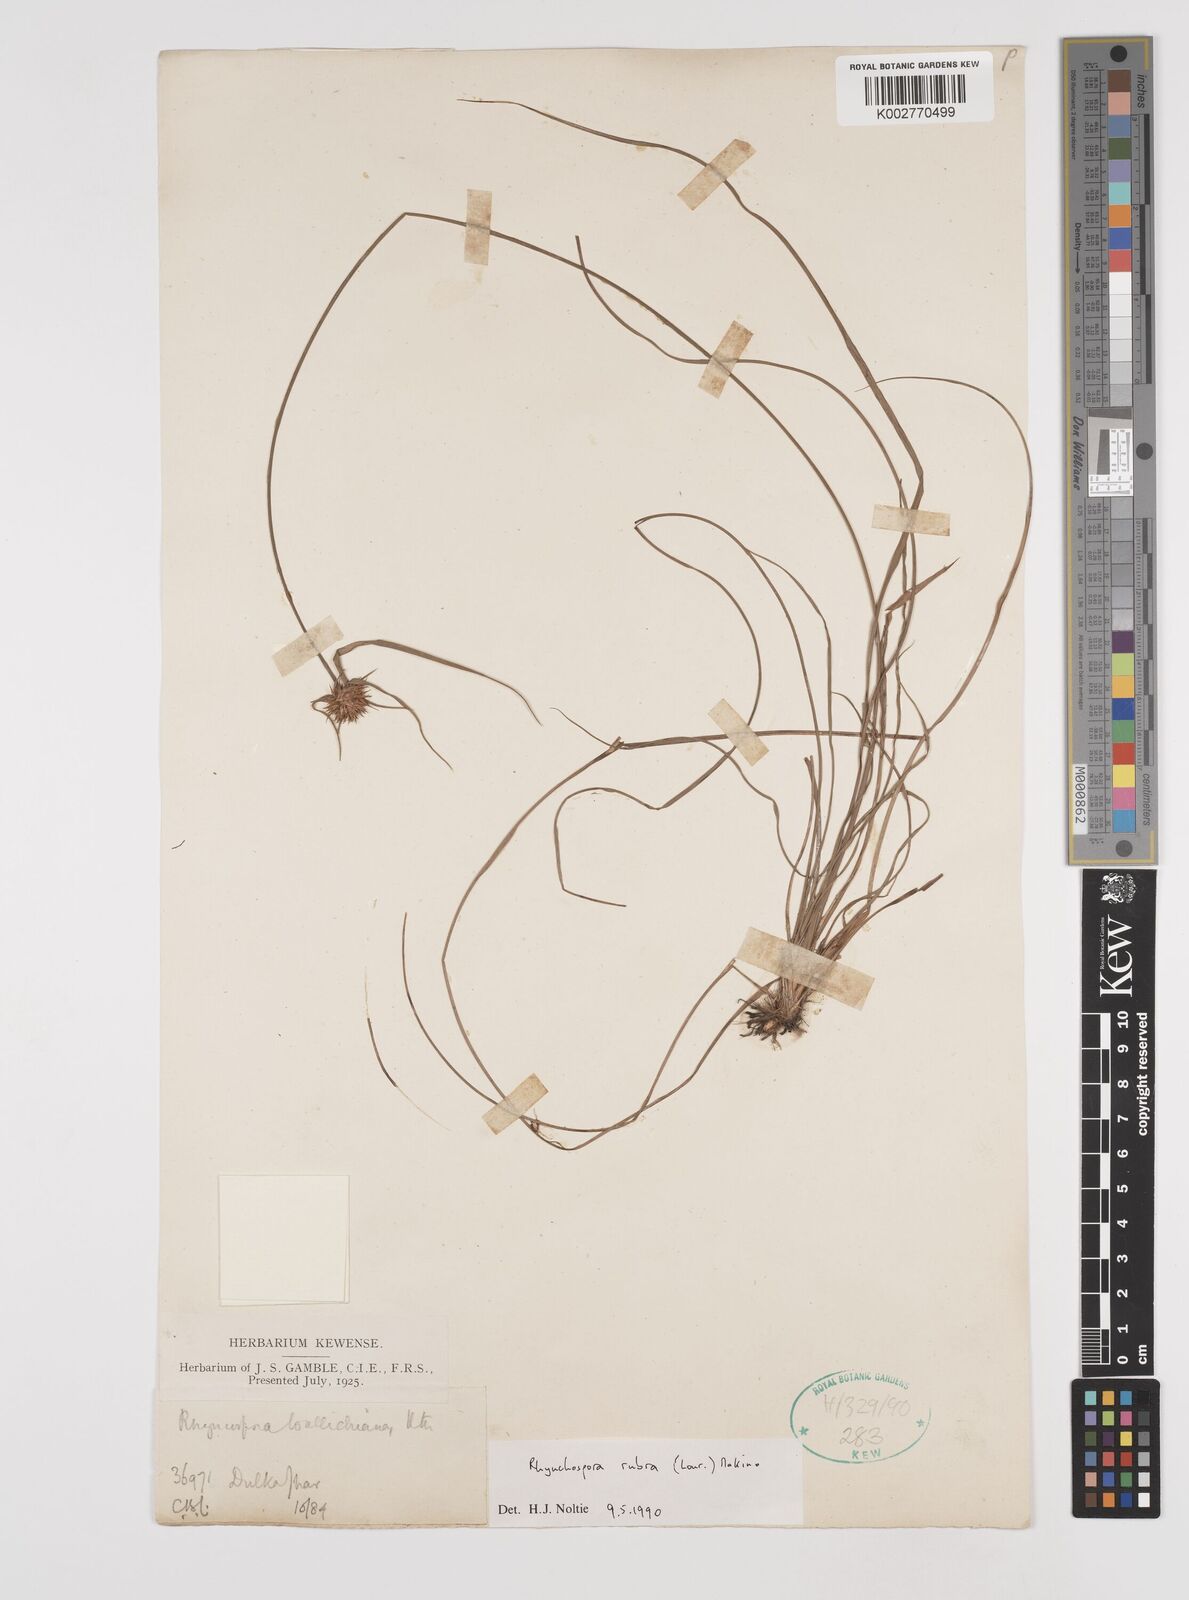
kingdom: Plantae
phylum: Tracheophyta
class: Liliopsida
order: Poales
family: Cyperaceae
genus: Rhynchospora
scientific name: Rhynchospora rubra
